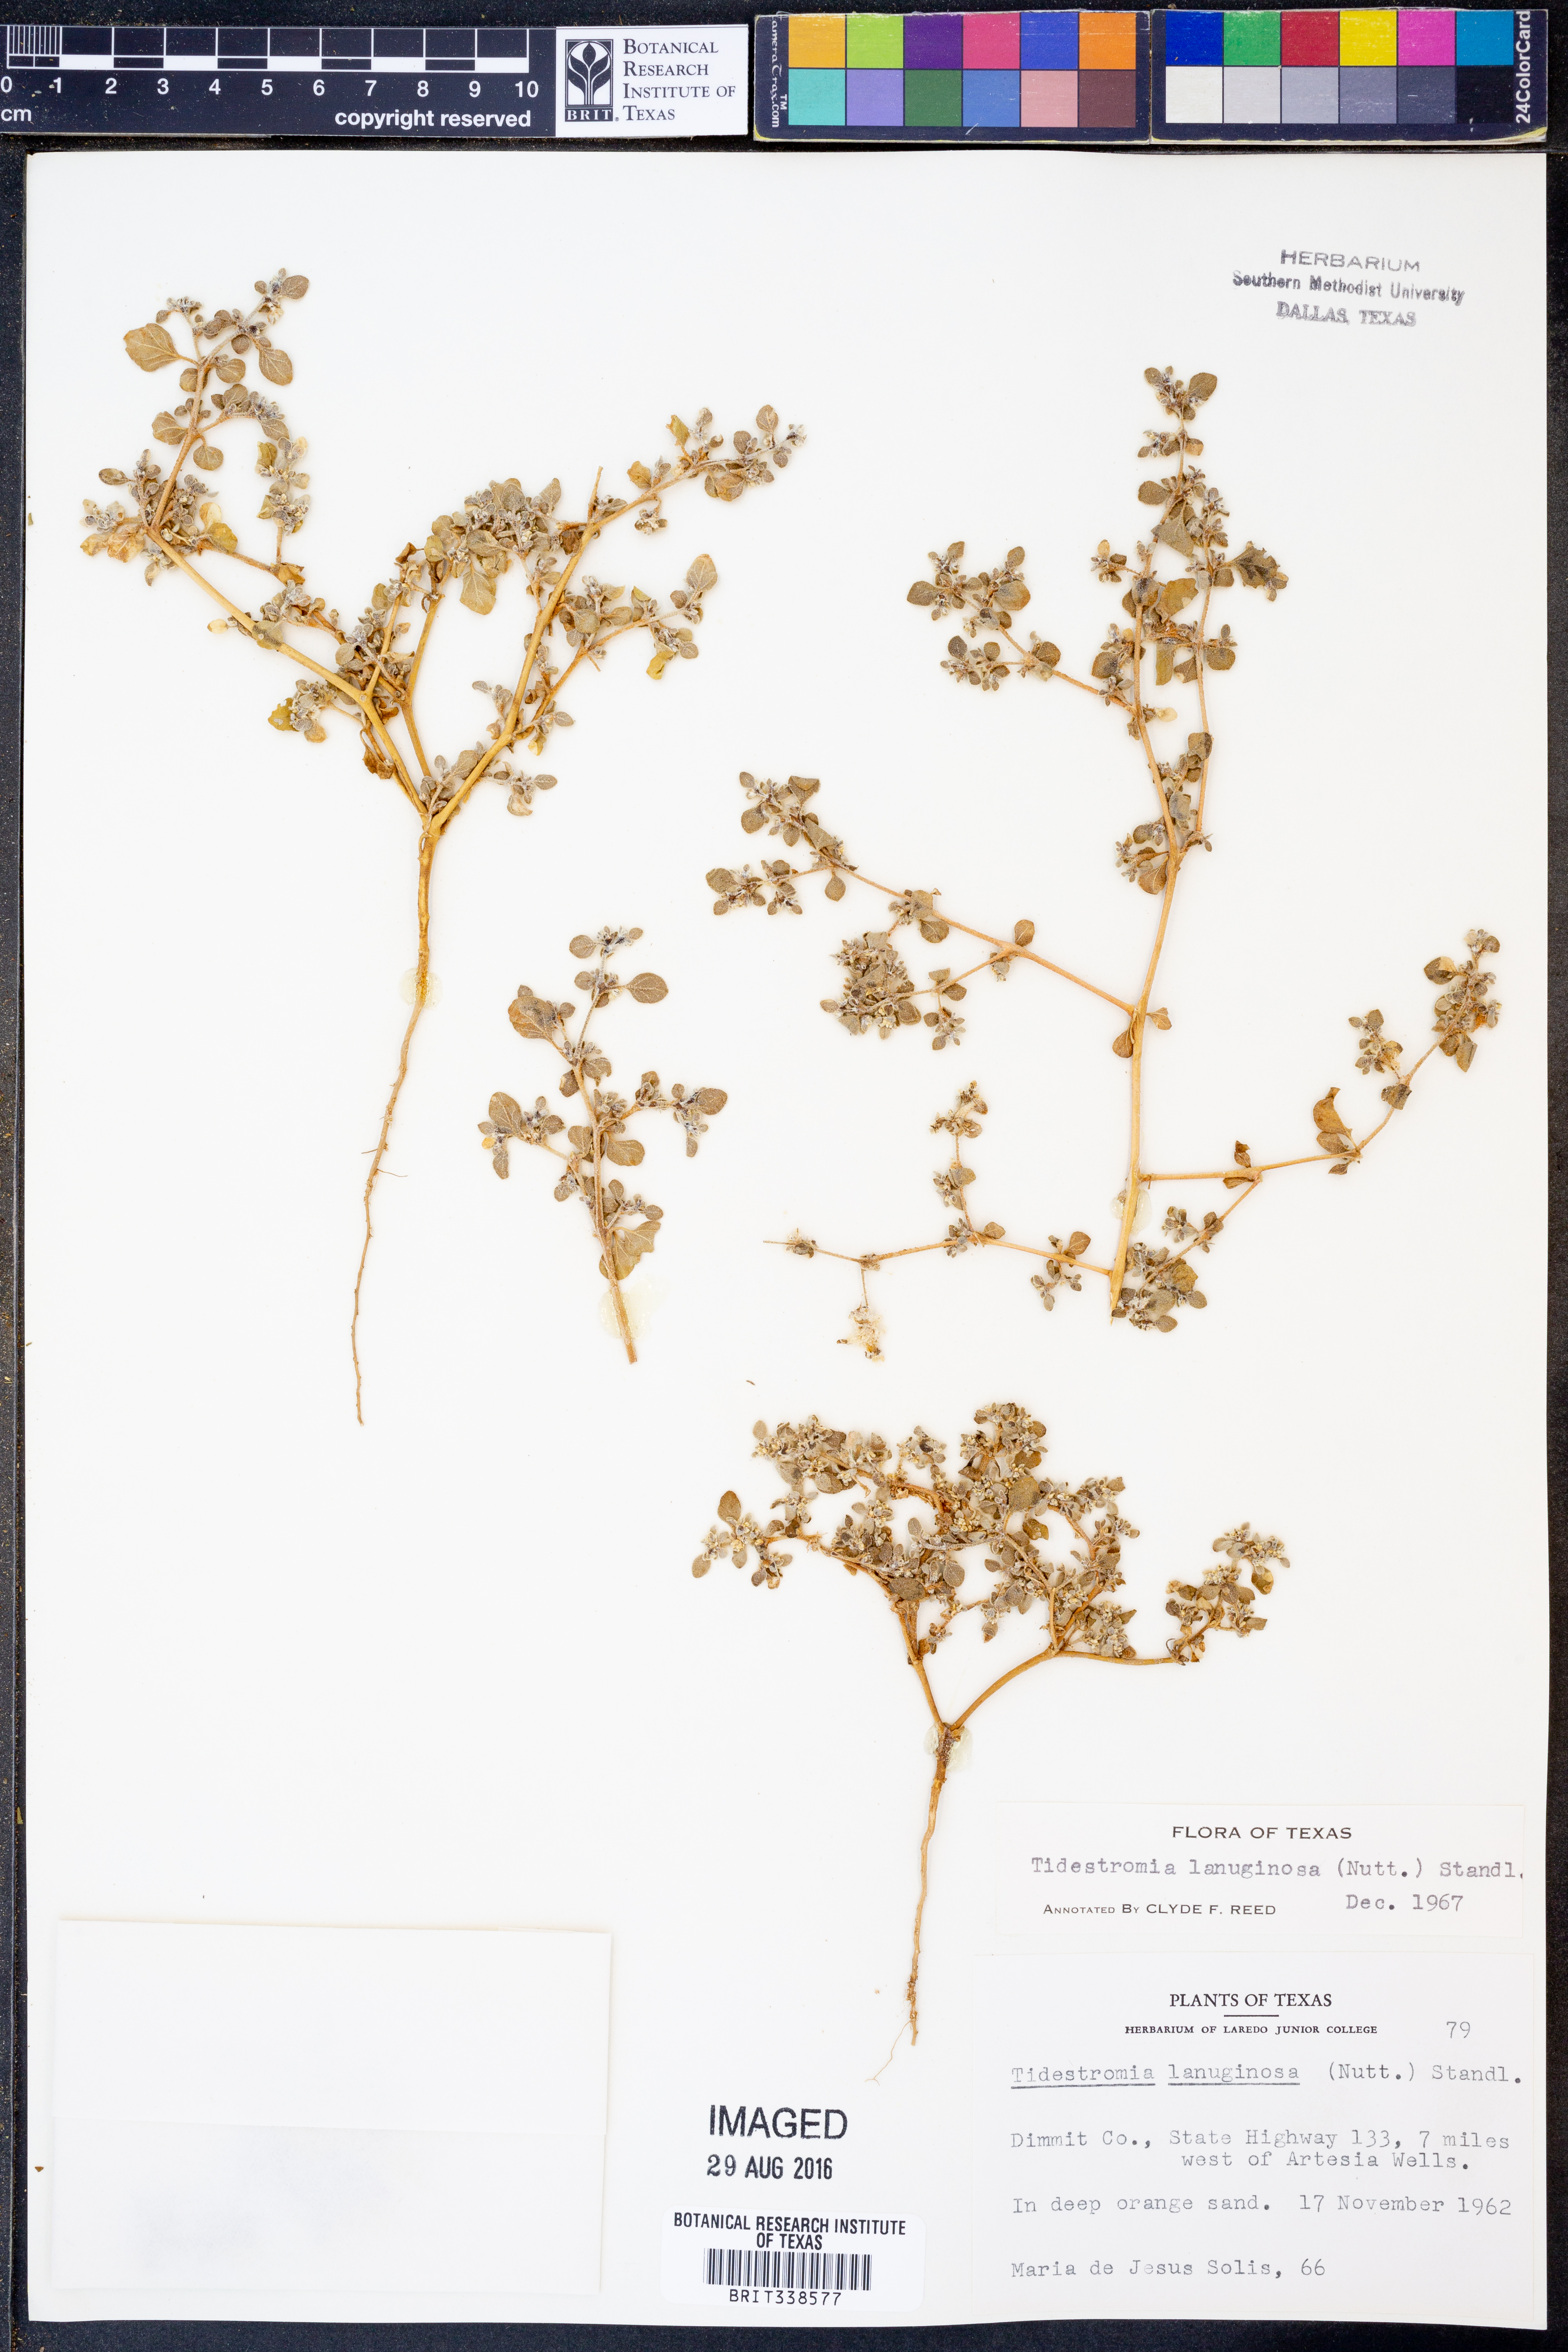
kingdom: Plantae
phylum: Tracheophyta
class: Magnoliopsida
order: Caryophyllales
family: Amaranthaceae
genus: Tidestromia
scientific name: Tidestromia lanuginosa
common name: Woolly tidestromia
